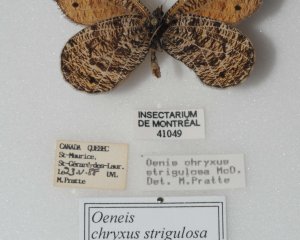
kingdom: Animalia
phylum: Arthropoda
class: Insecta
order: Lepidoptera
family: Nymphalidae
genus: Oeneis
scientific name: Oeneis chryxus
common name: Chryxus Arctic
